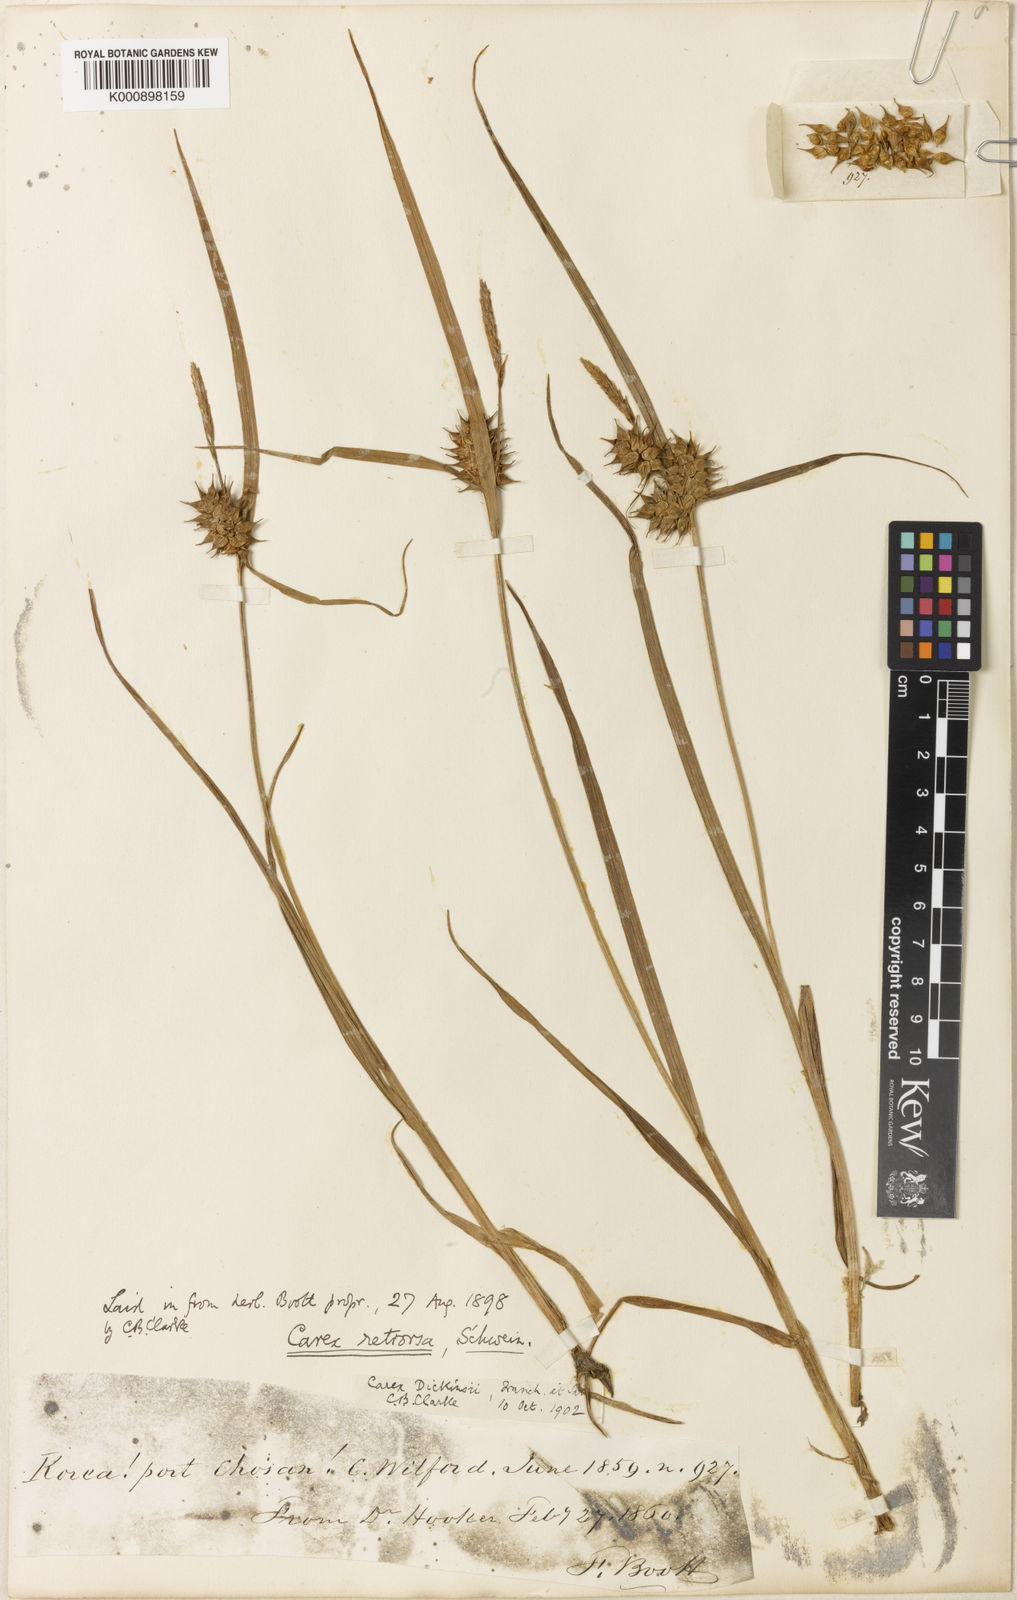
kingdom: Plantae
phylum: Tracheophyta
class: Liliopsida
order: Poales
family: Cyperaceae
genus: Carex
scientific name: Carex dickinsii
